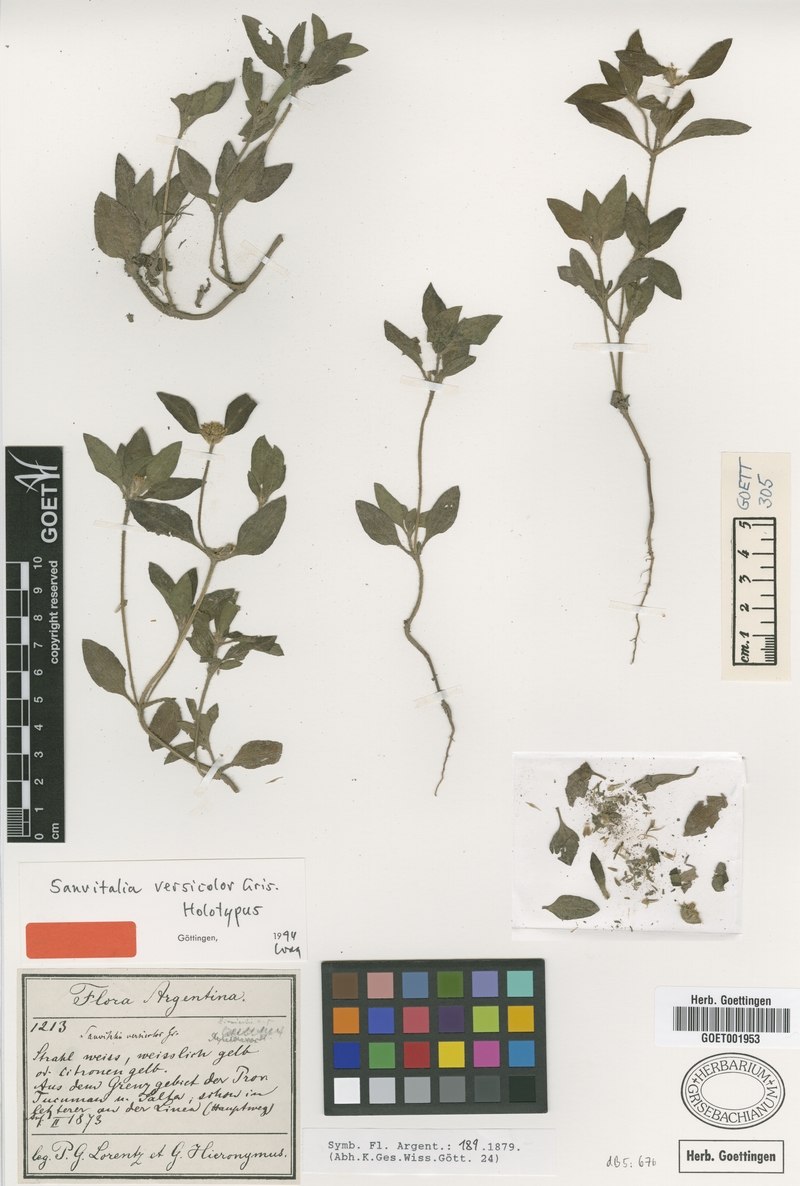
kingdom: Plantae
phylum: Tracheophyta
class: Magnoliopsida
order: Asterales
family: Asteraceae
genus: Sanvitalia
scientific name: Sanvitalia versicolor
